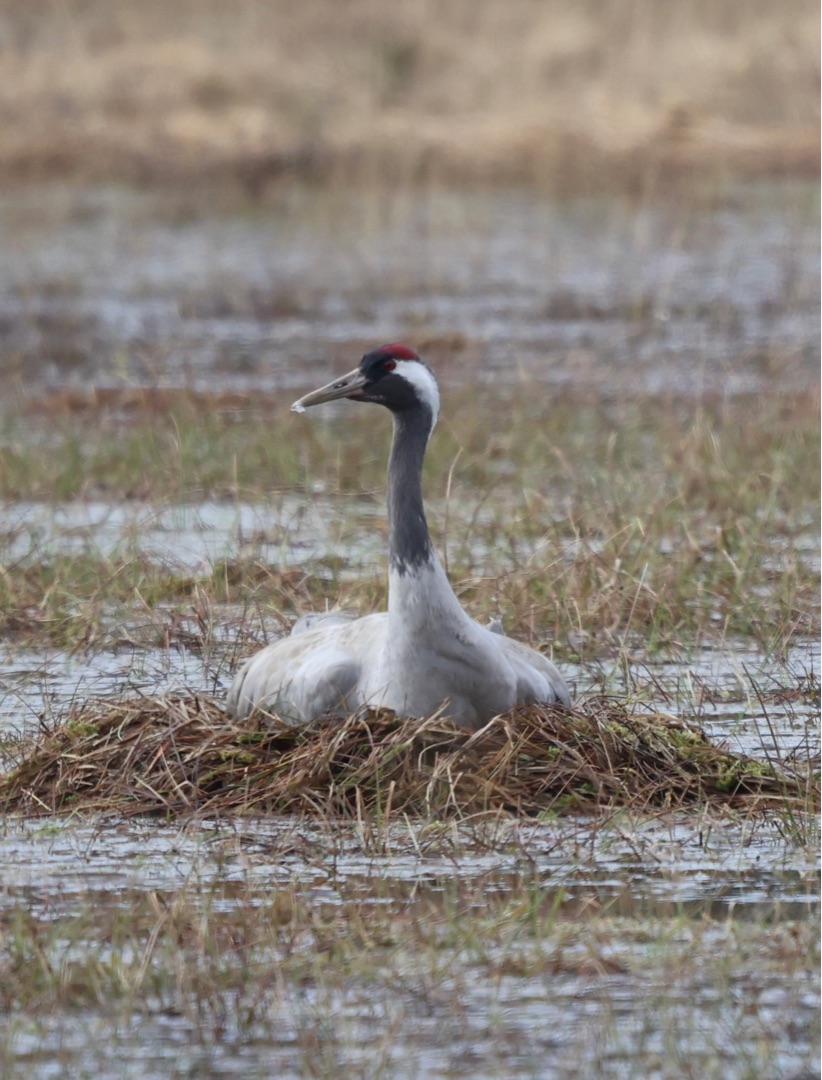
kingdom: Animalia
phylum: Chordata
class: Aves
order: Gruiformes
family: Gruidae
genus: Grus
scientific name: Grus grus
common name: Trane
